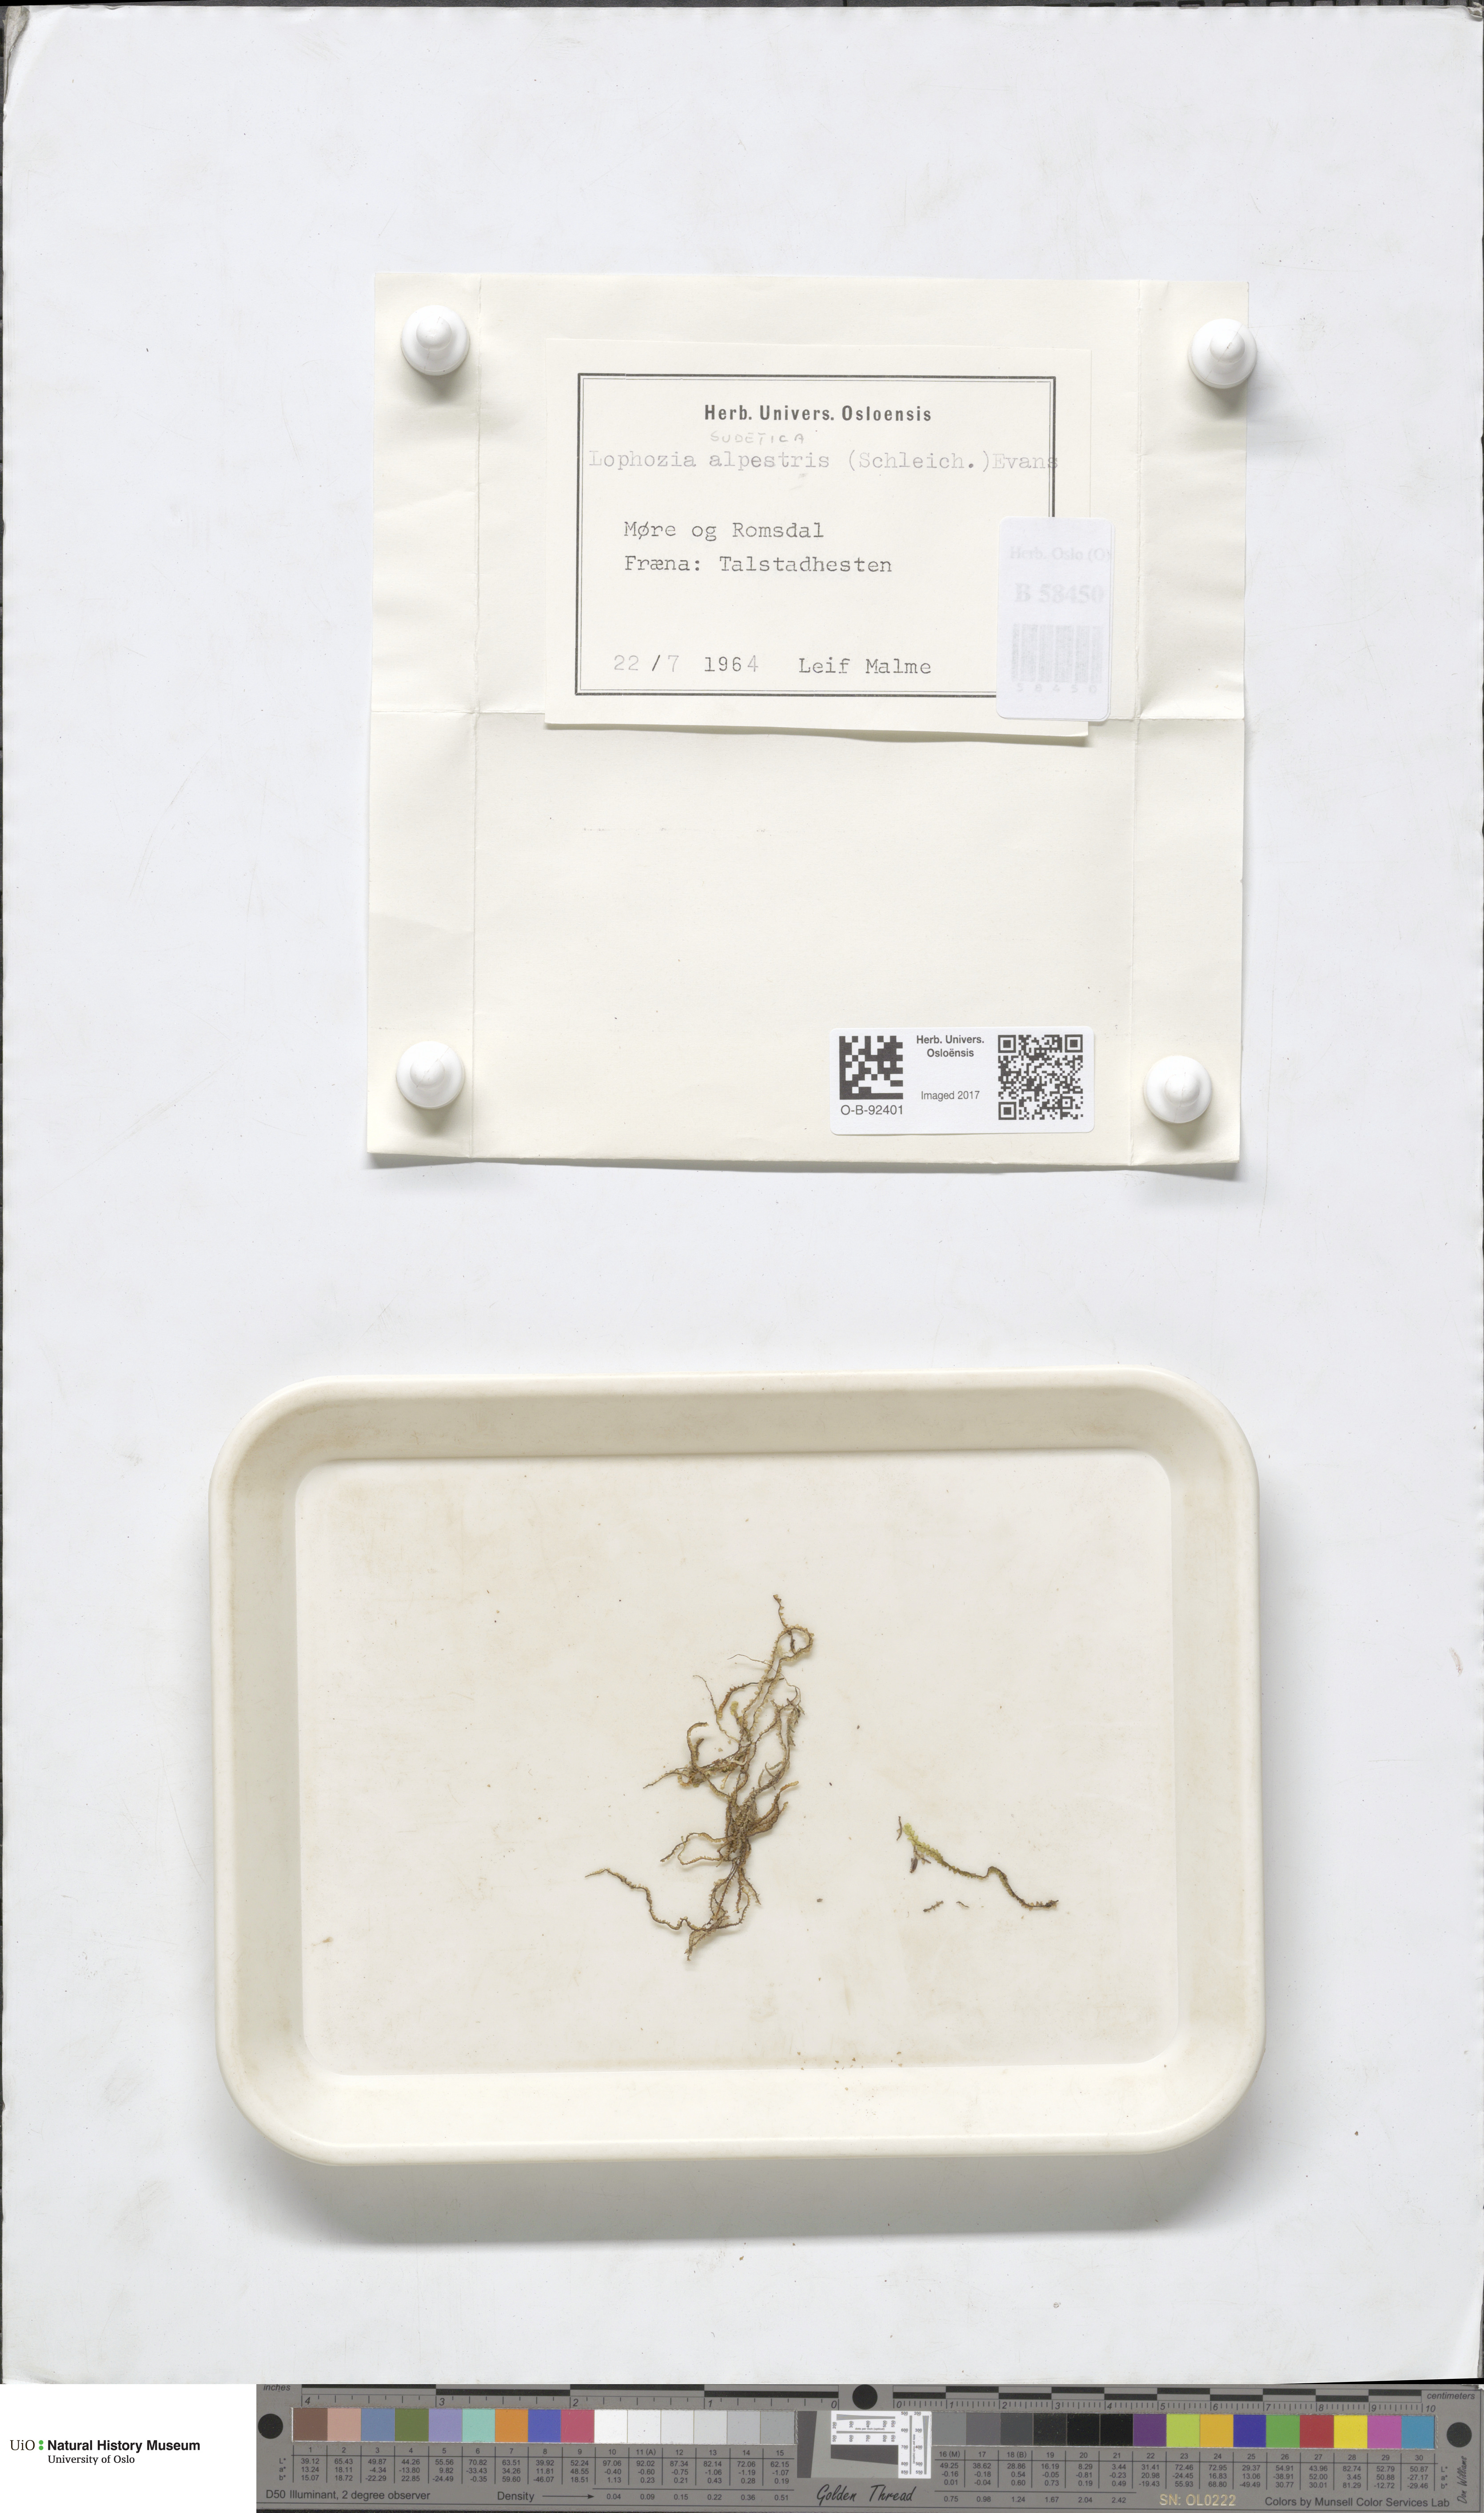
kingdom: Plantae
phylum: Marchantiophyta
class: Jungermanniopsida
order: Jungermanniales
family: Anastrophyllaceae
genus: Barbilophozia
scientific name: Barbilophozia sudetica
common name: Hill notchwort
